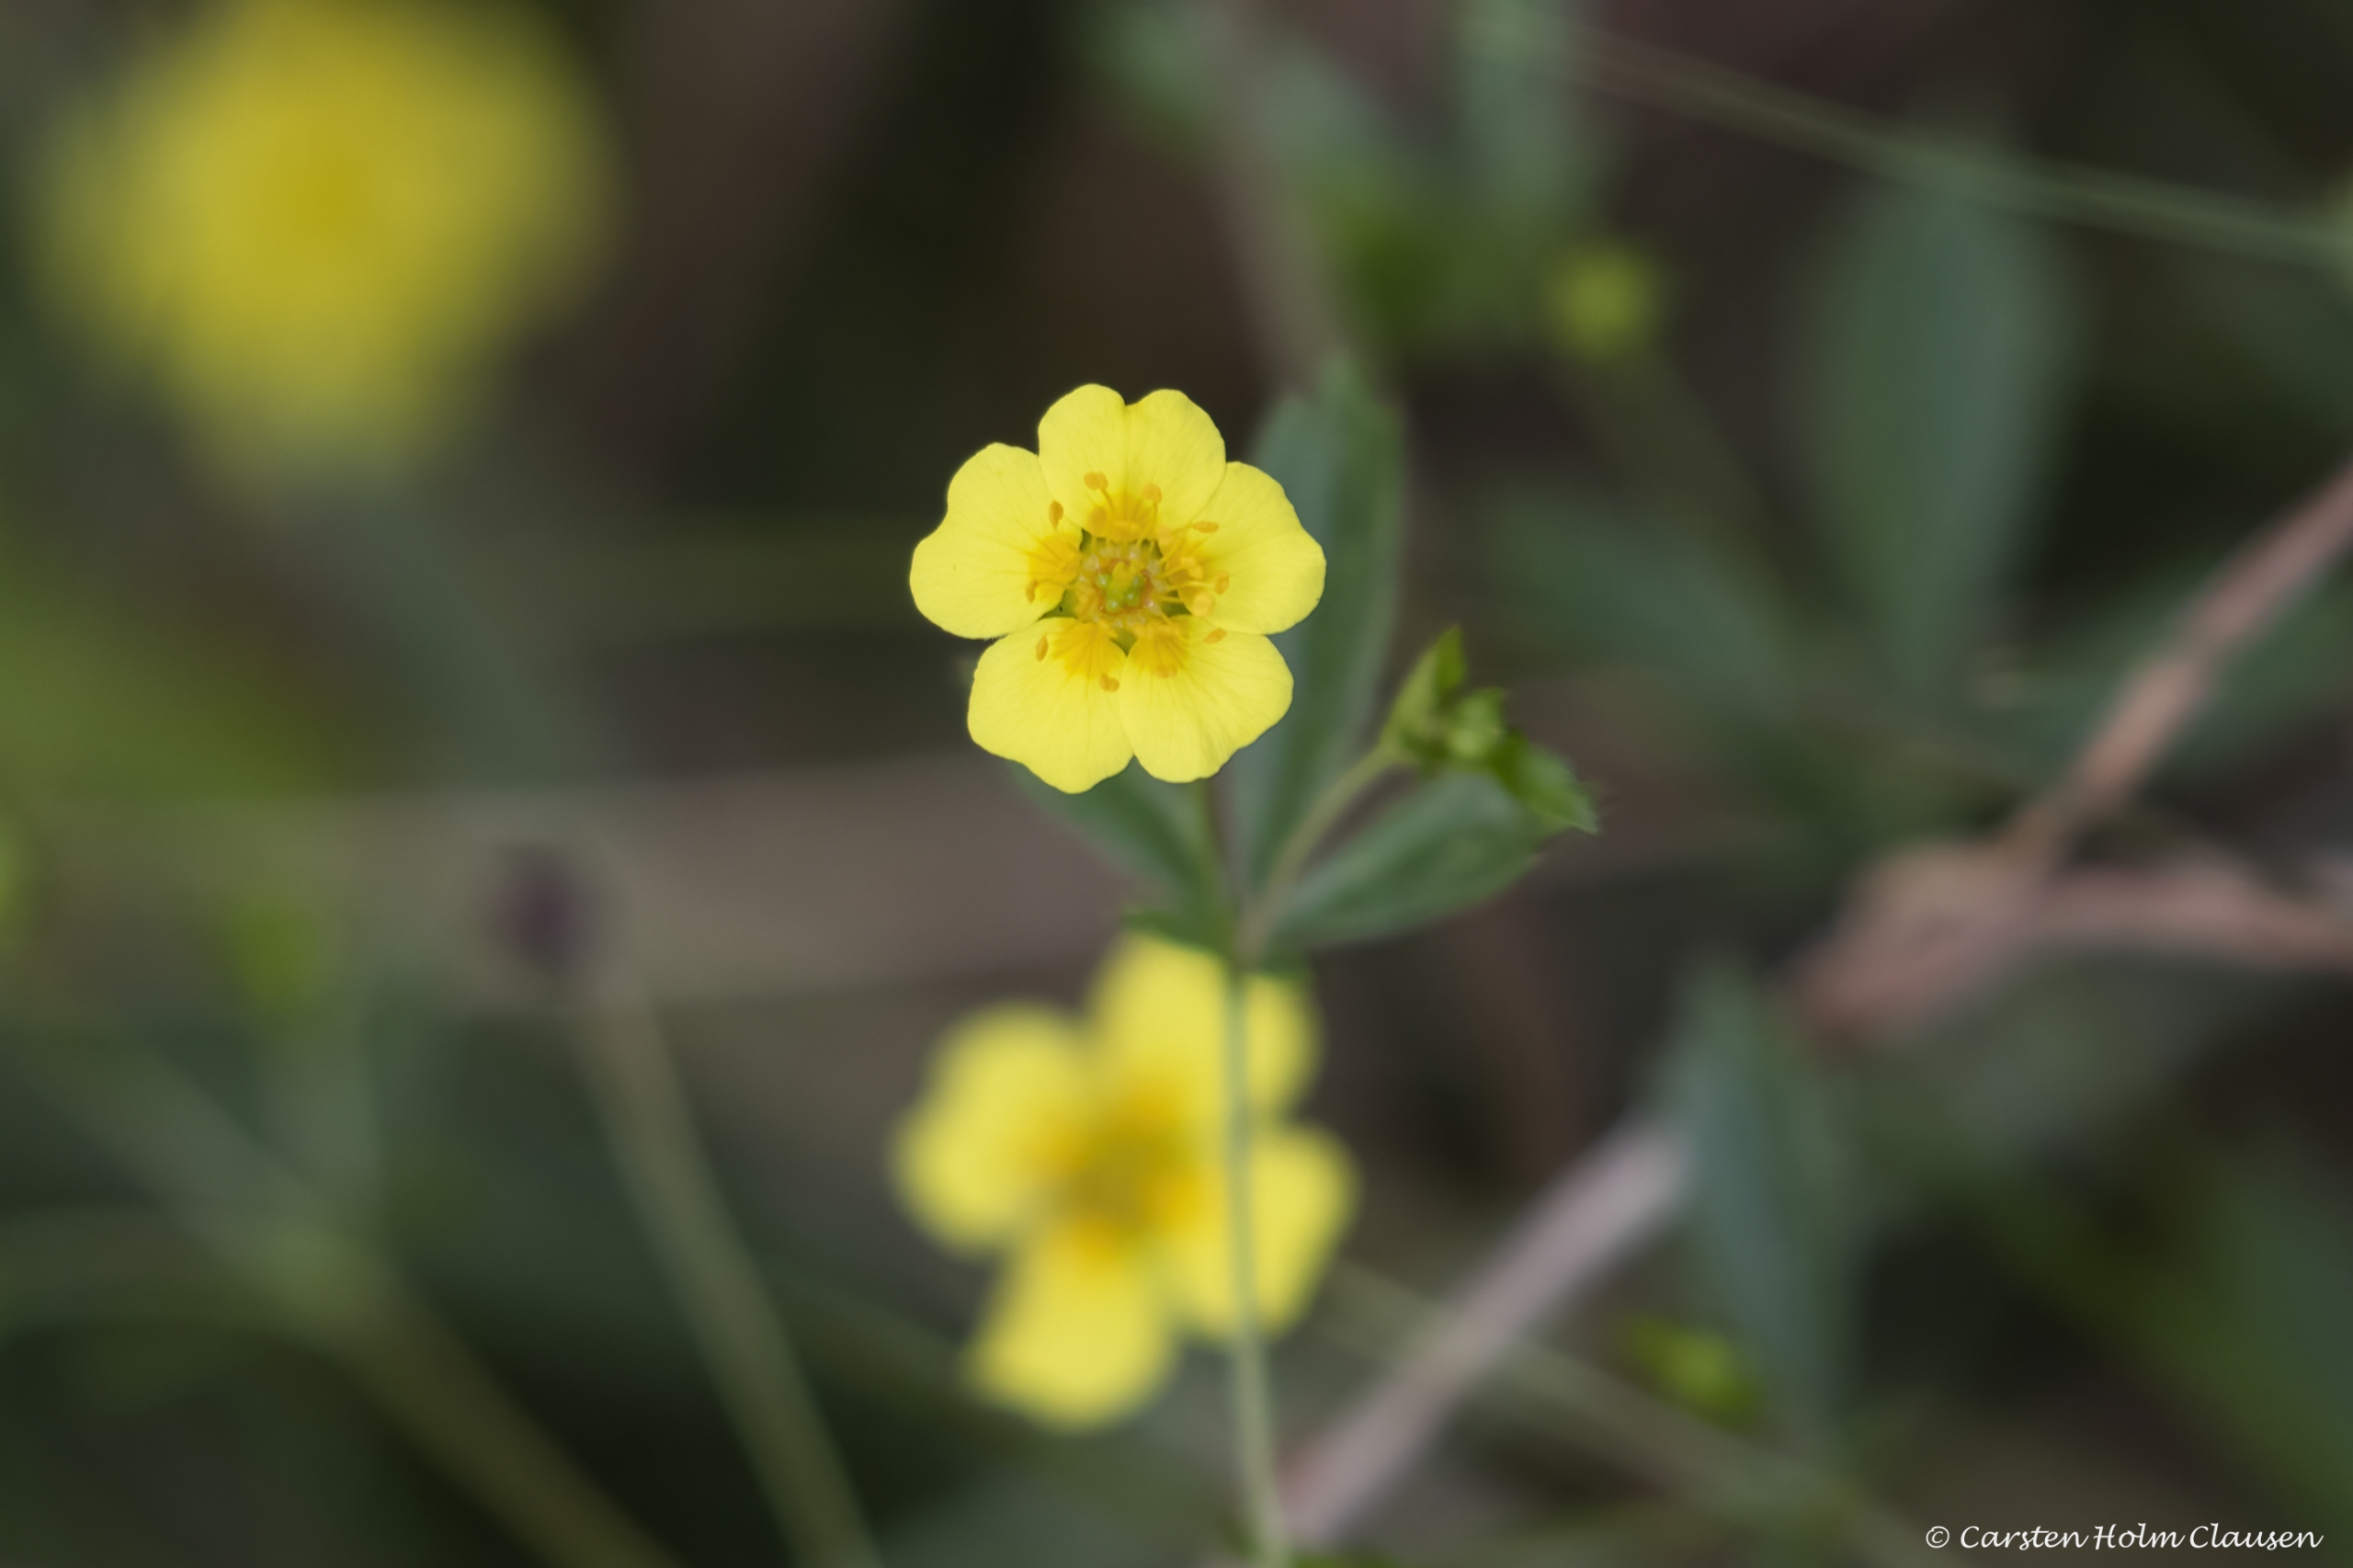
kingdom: Plantae
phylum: Tracheophyta
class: Magnoliopsida
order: Rosales
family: Rosaceae
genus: Potentilla
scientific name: Potentilla erecta
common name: Tormentil
